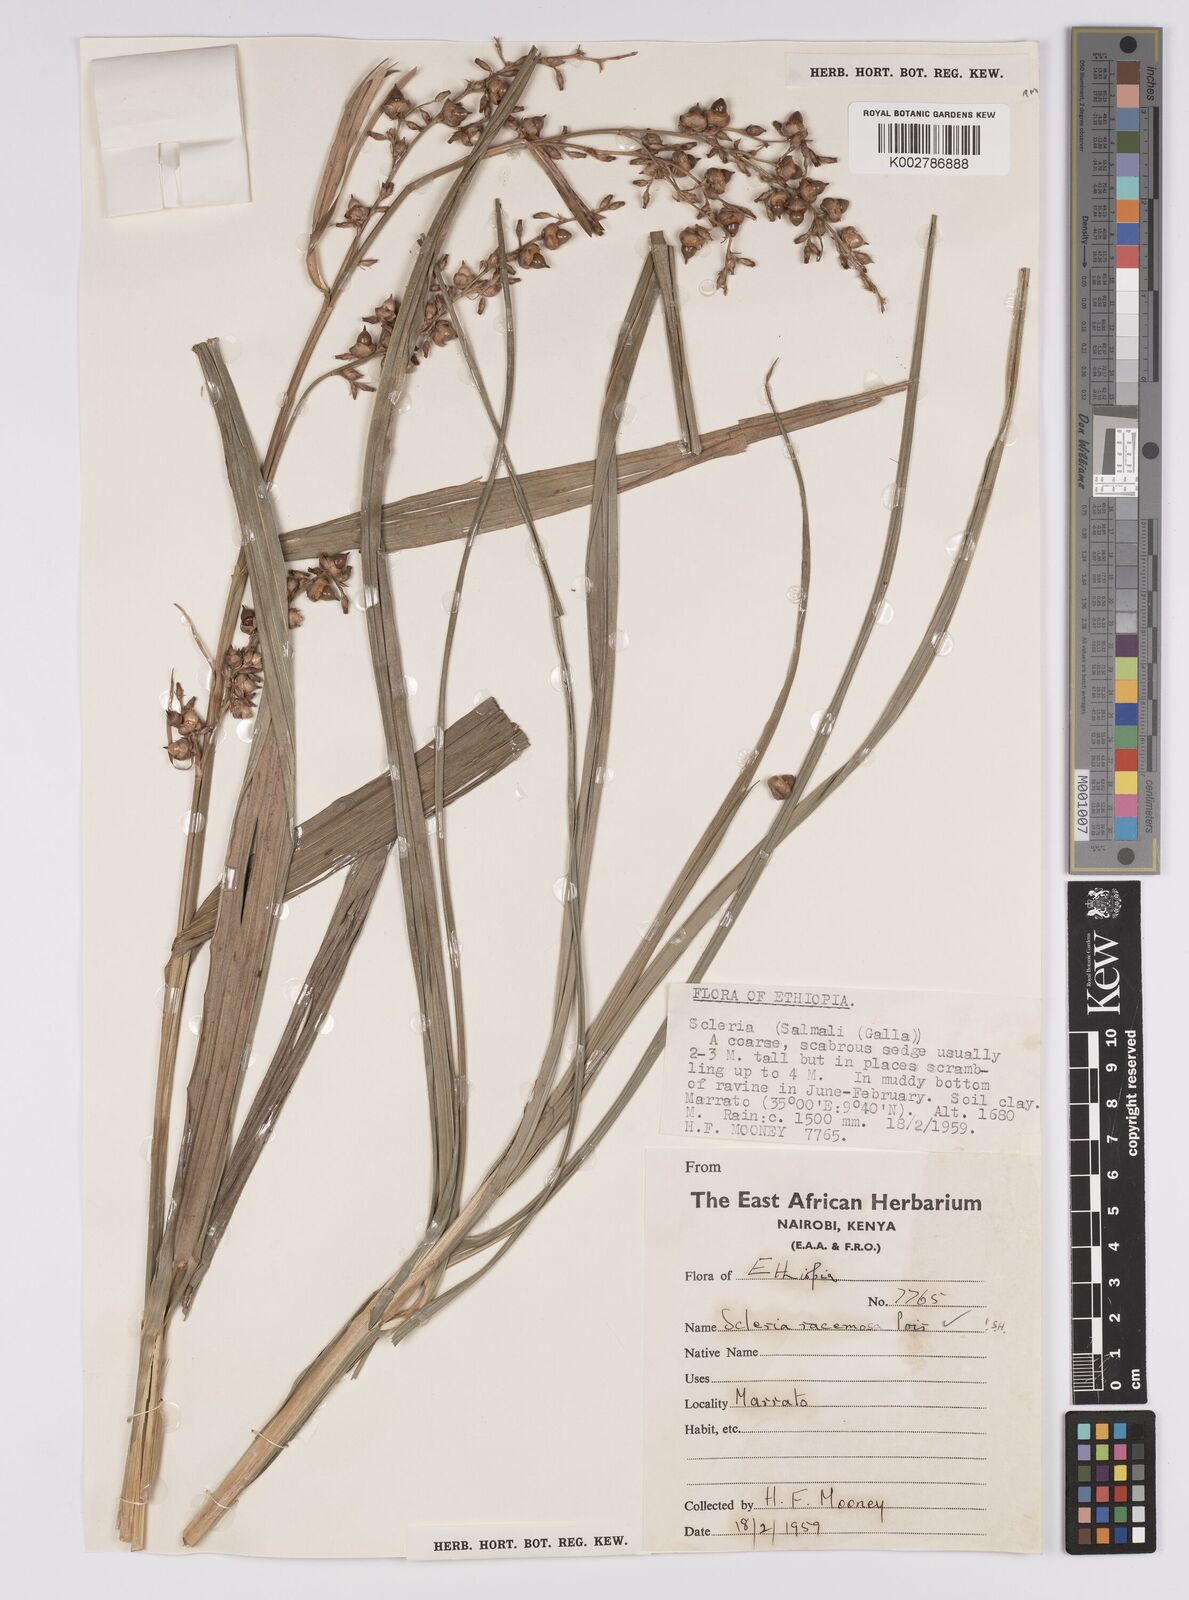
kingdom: Plantae
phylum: Tracheophyta
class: Liliopsida
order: Poales
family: Cyperaceae
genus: Scleria
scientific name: Scleria racemosa
